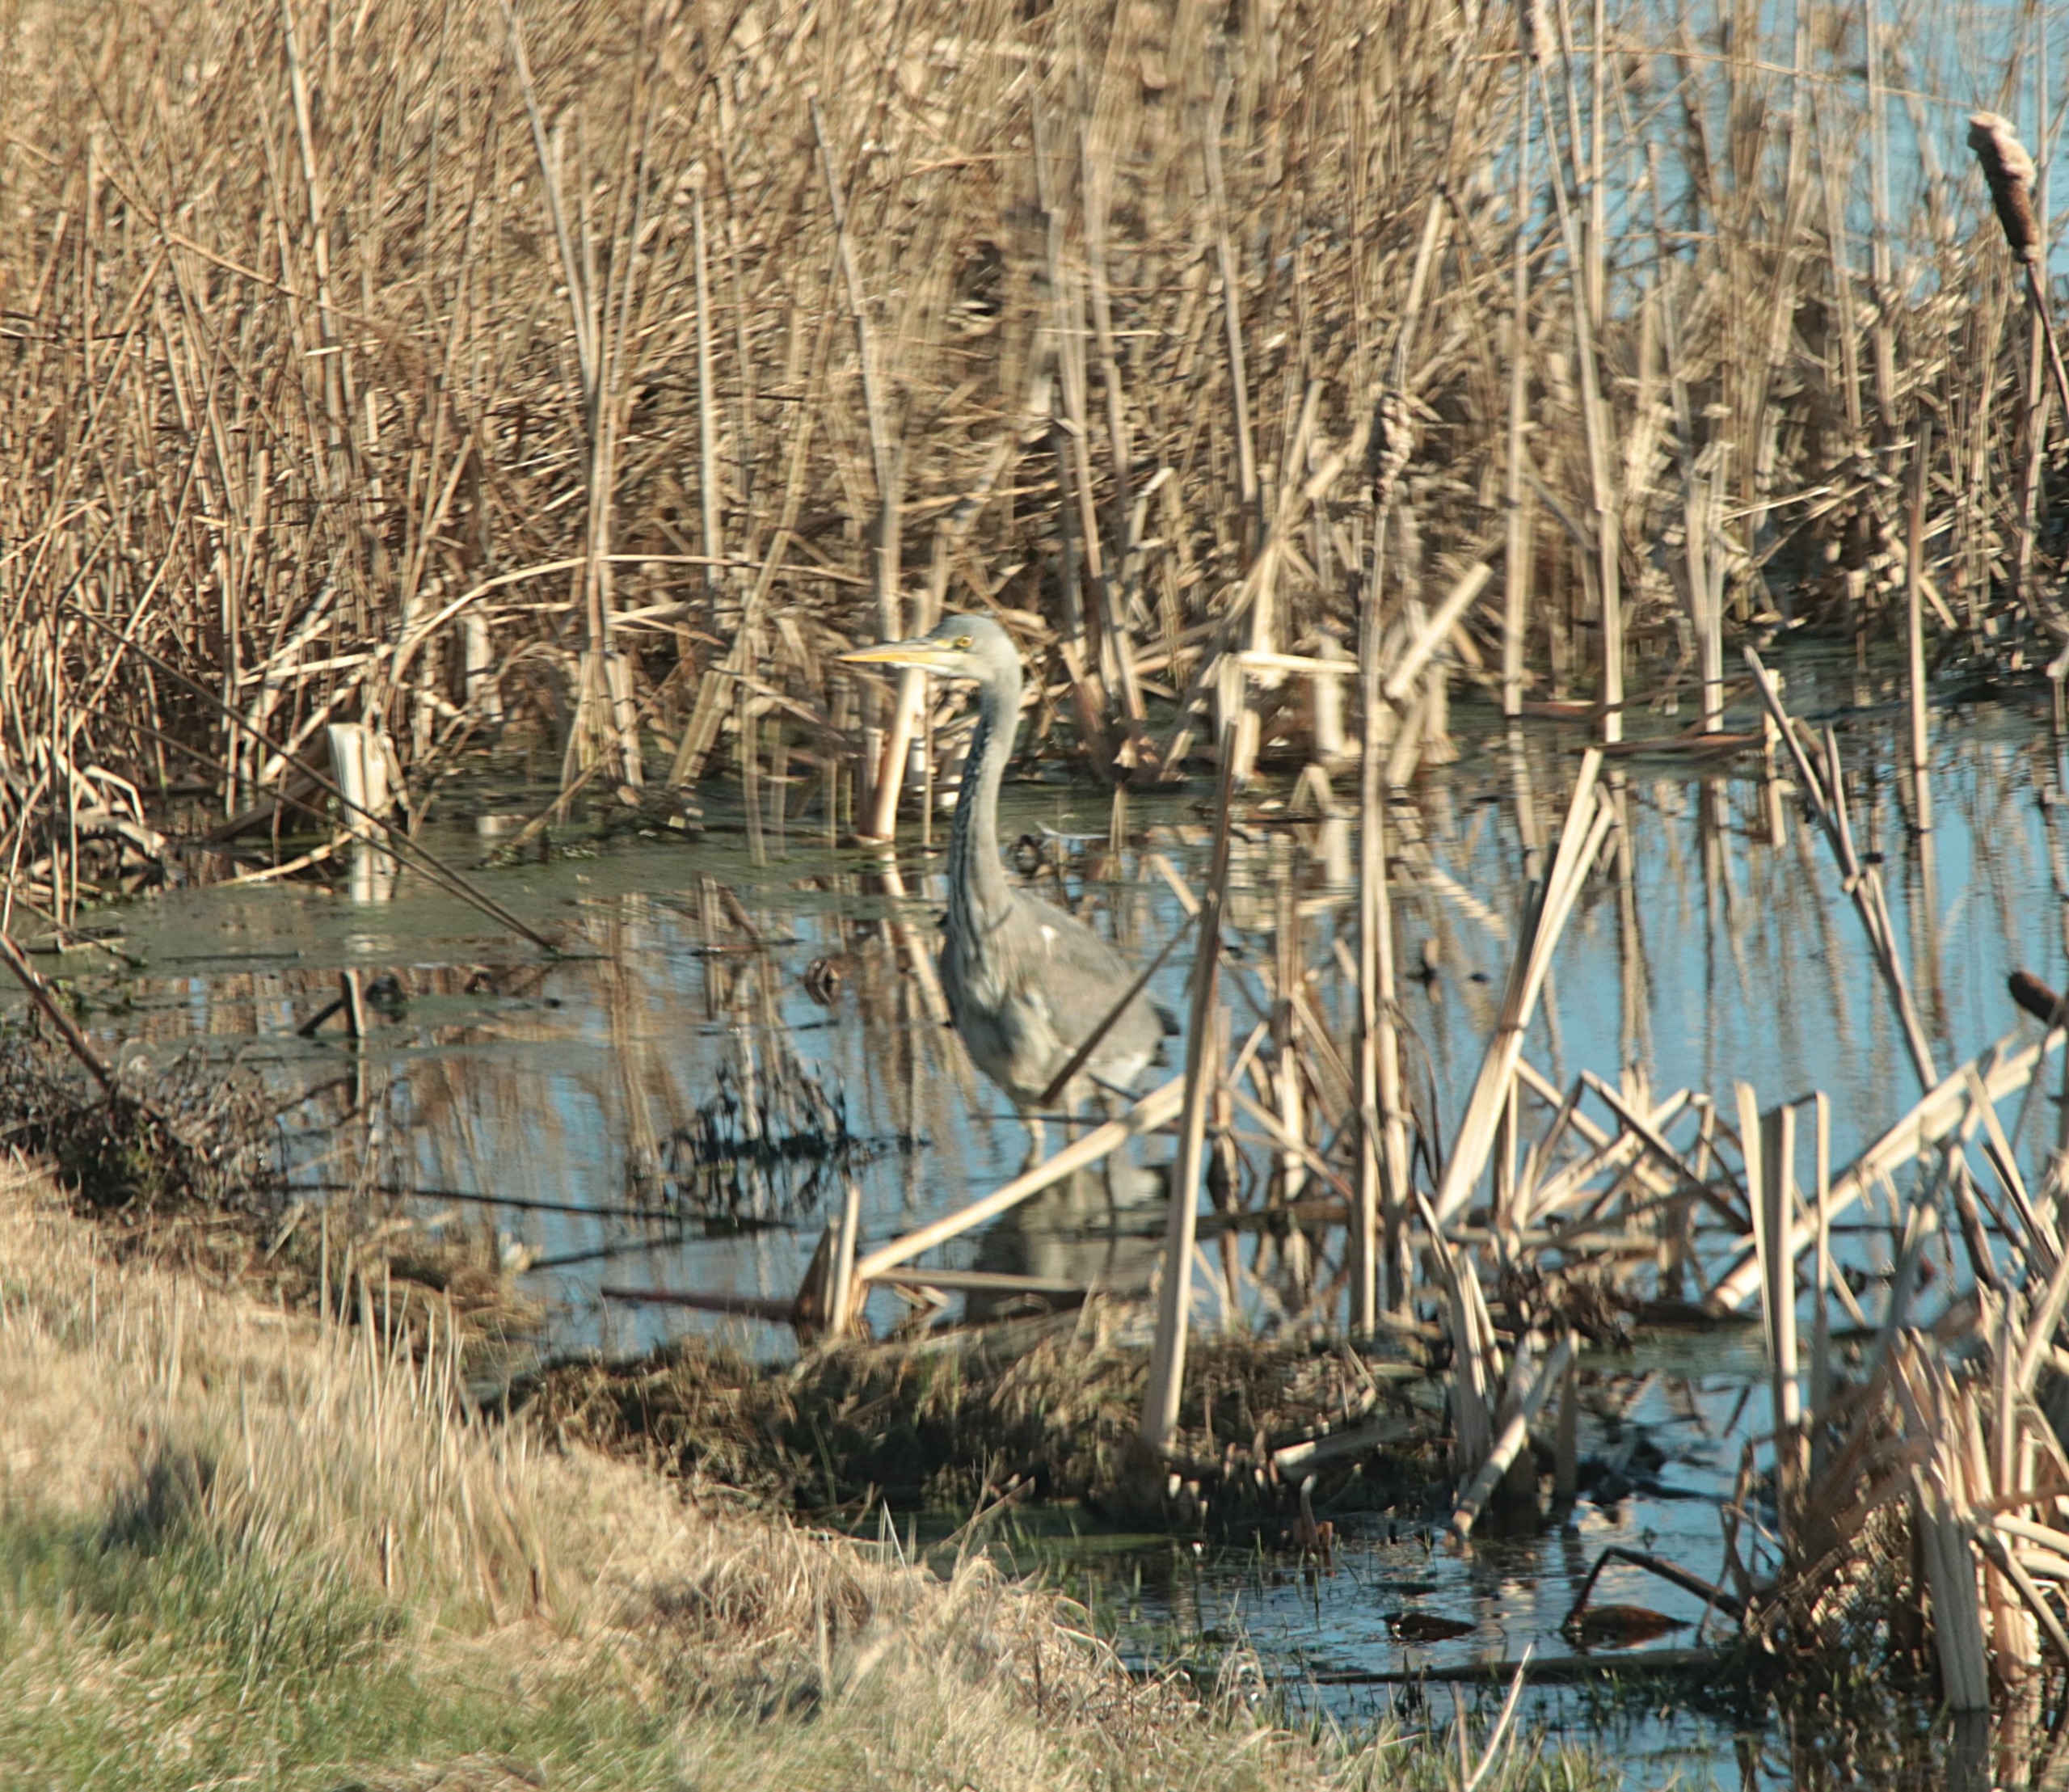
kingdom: Animalia
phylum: Chordata
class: Aves
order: Pelecaniformes
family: Ardeidae
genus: Ardea
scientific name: Ardea cinerea
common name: Fiskehejre
